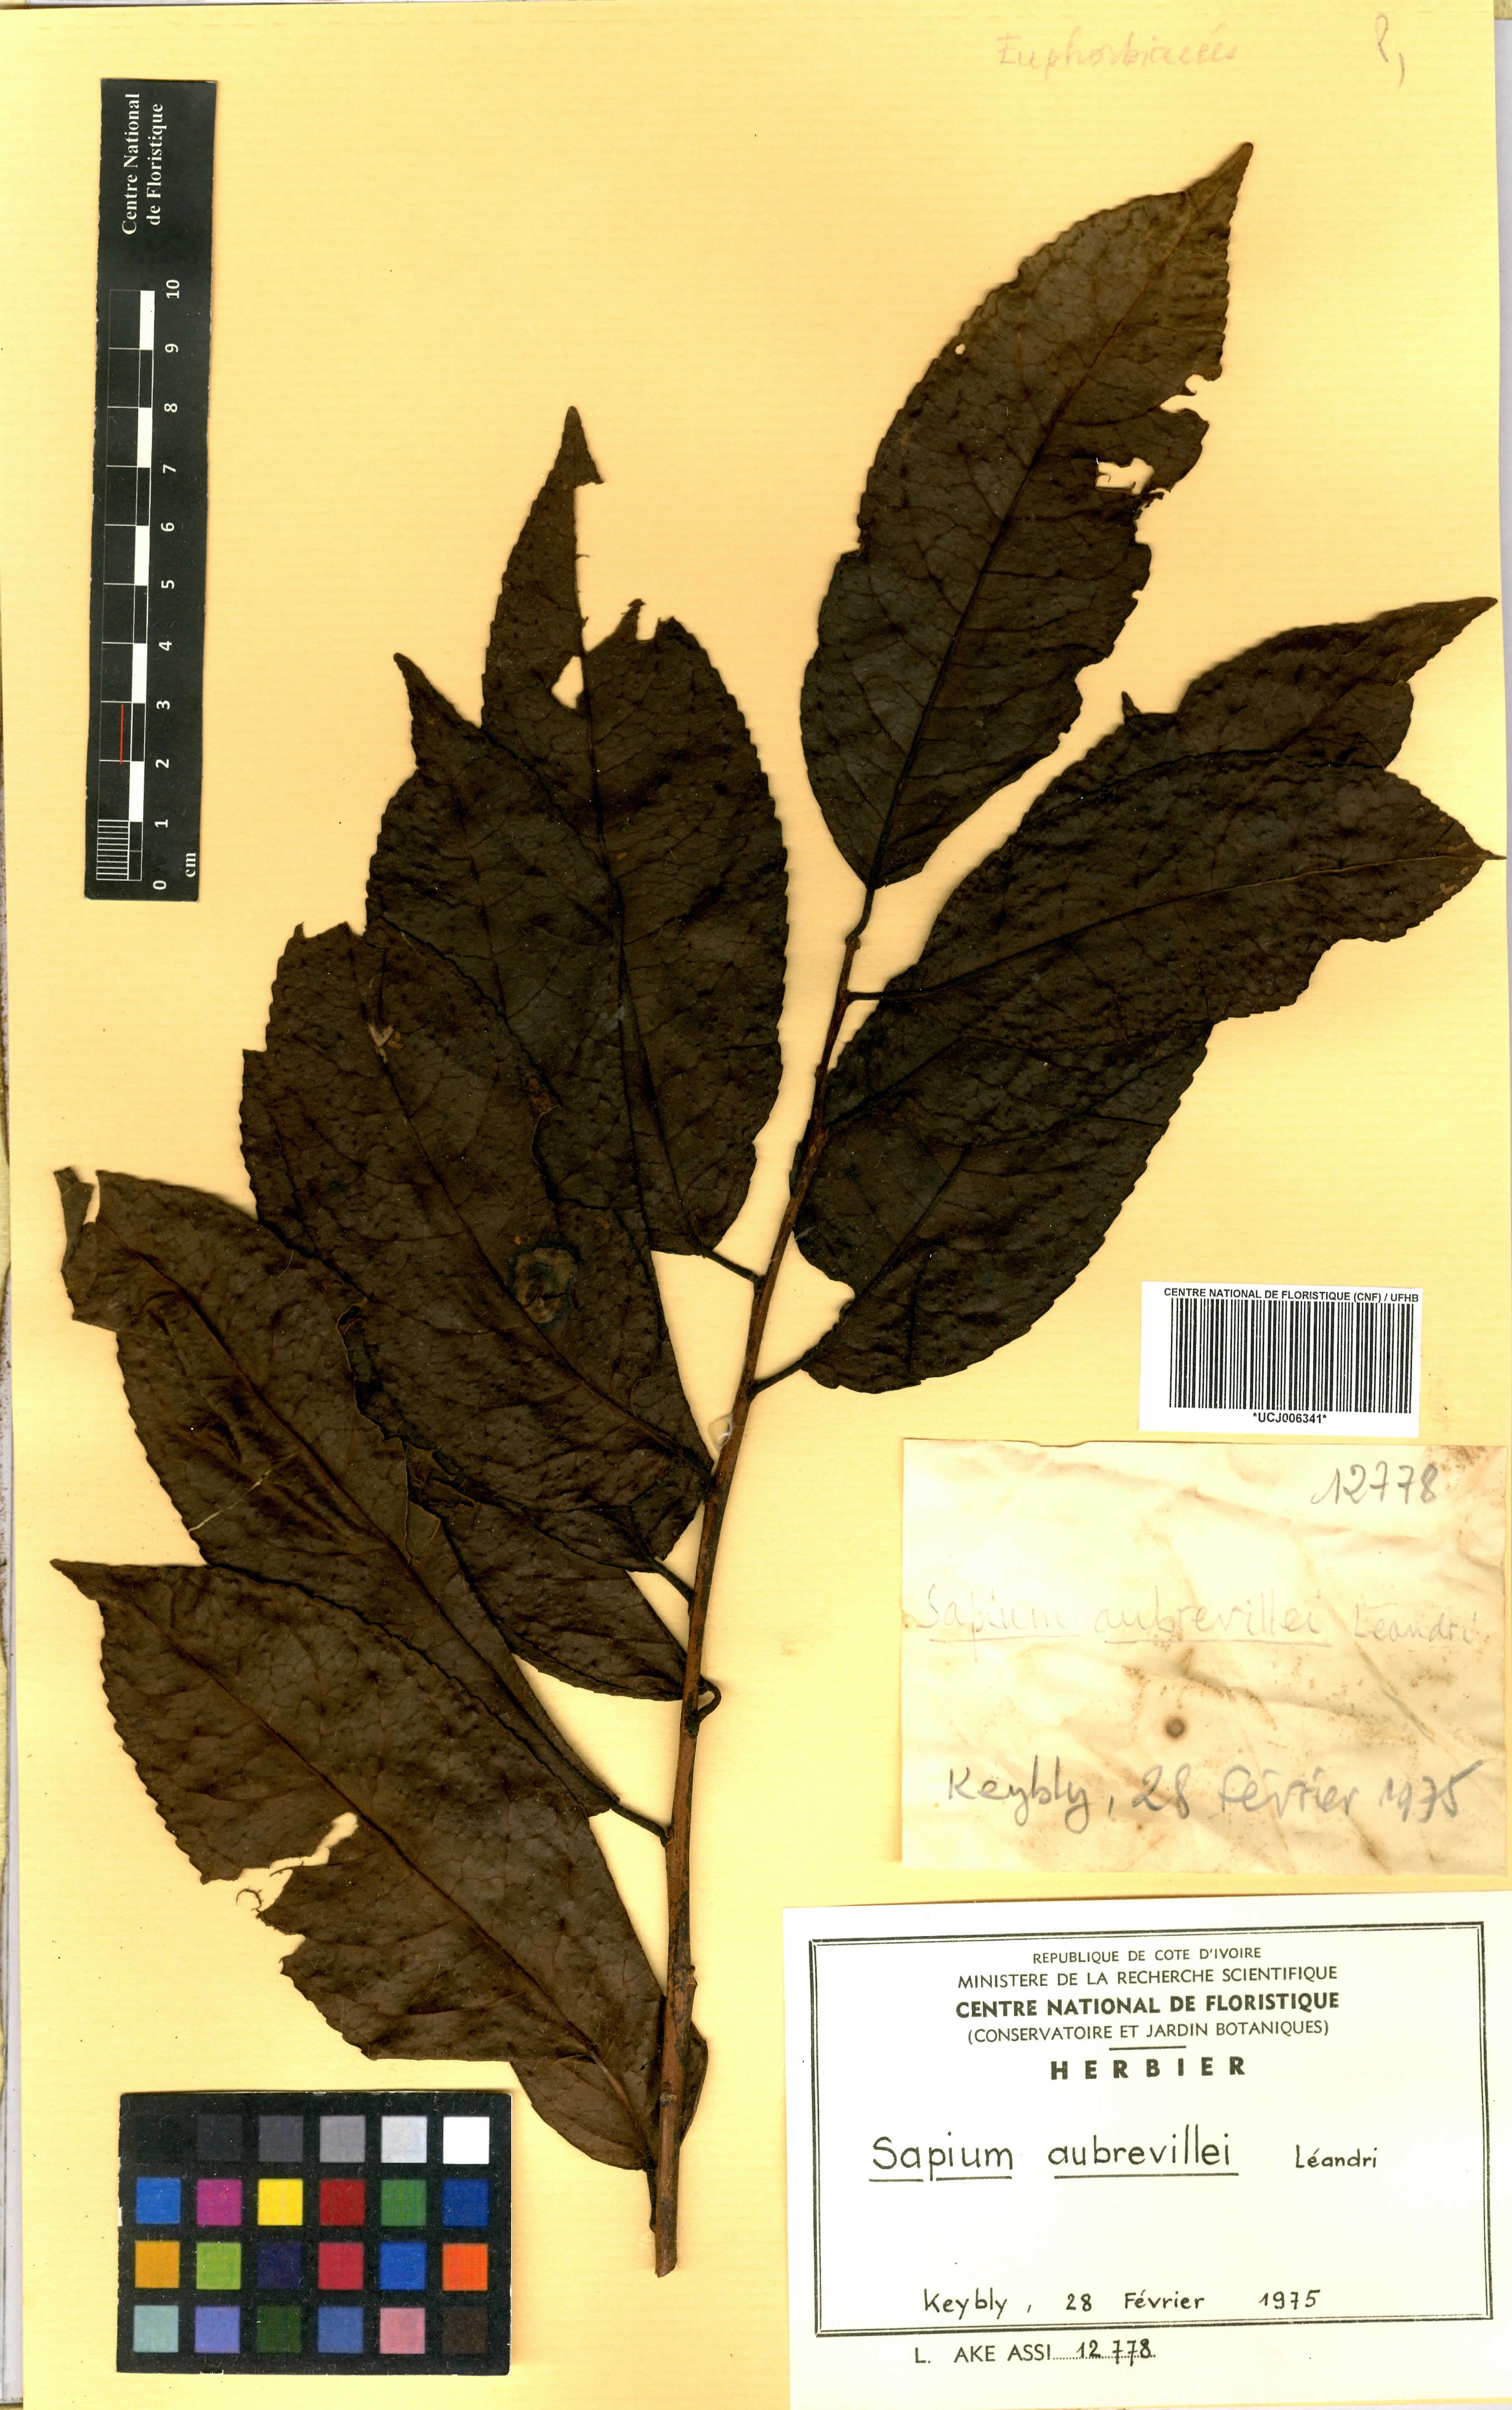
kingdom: Plantae
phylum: Tracheophyta
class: Magnoliopsida
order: Malpighiales
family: Euphorbiaceae
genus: Shirakiopsis
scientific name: Shirakiopsis aubrevillei
